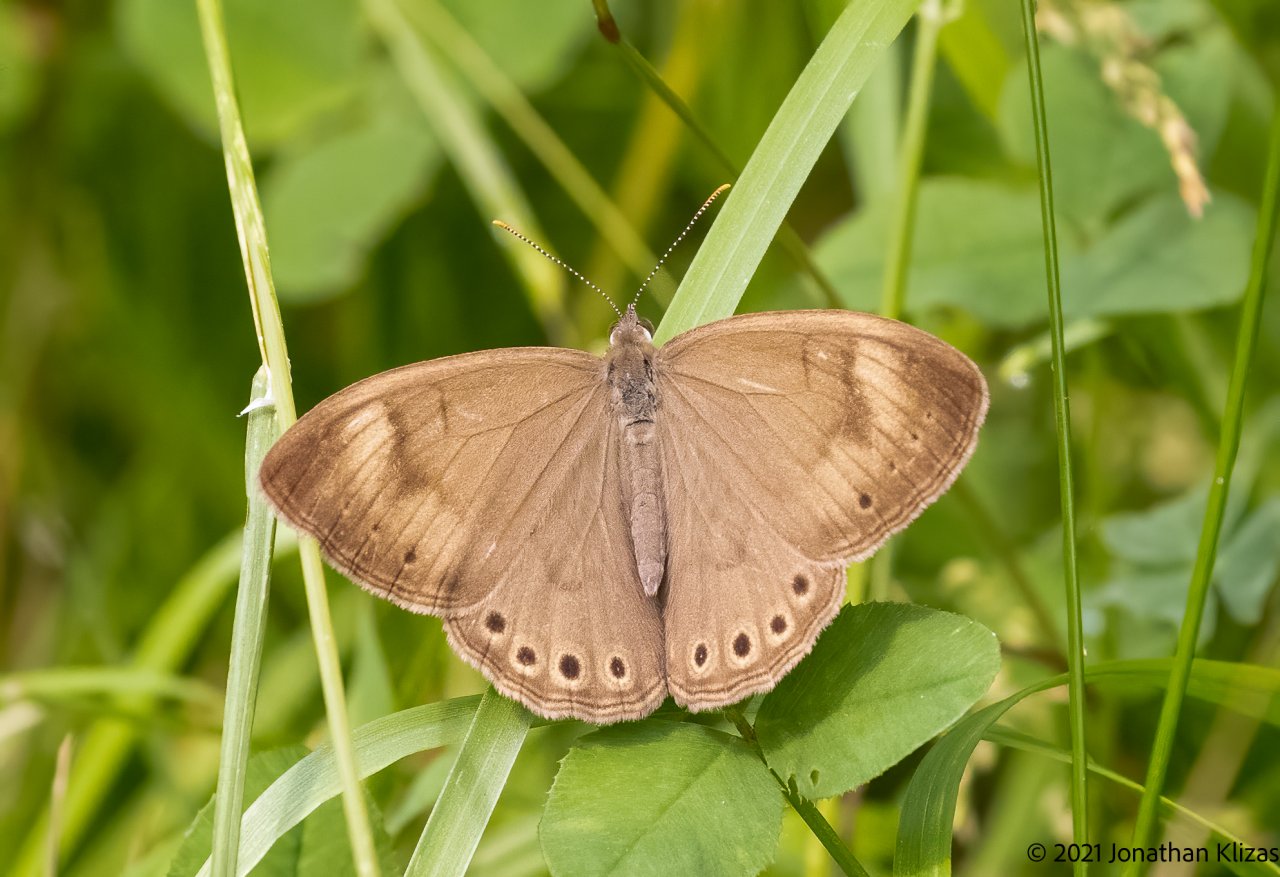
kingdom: Animalia
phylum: Arthropoda
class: Insecta
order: Lepidoptera
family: Nymphalidae
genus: Lethe
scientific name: Lethe eurydice
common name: Appalachian Eyed Brown
